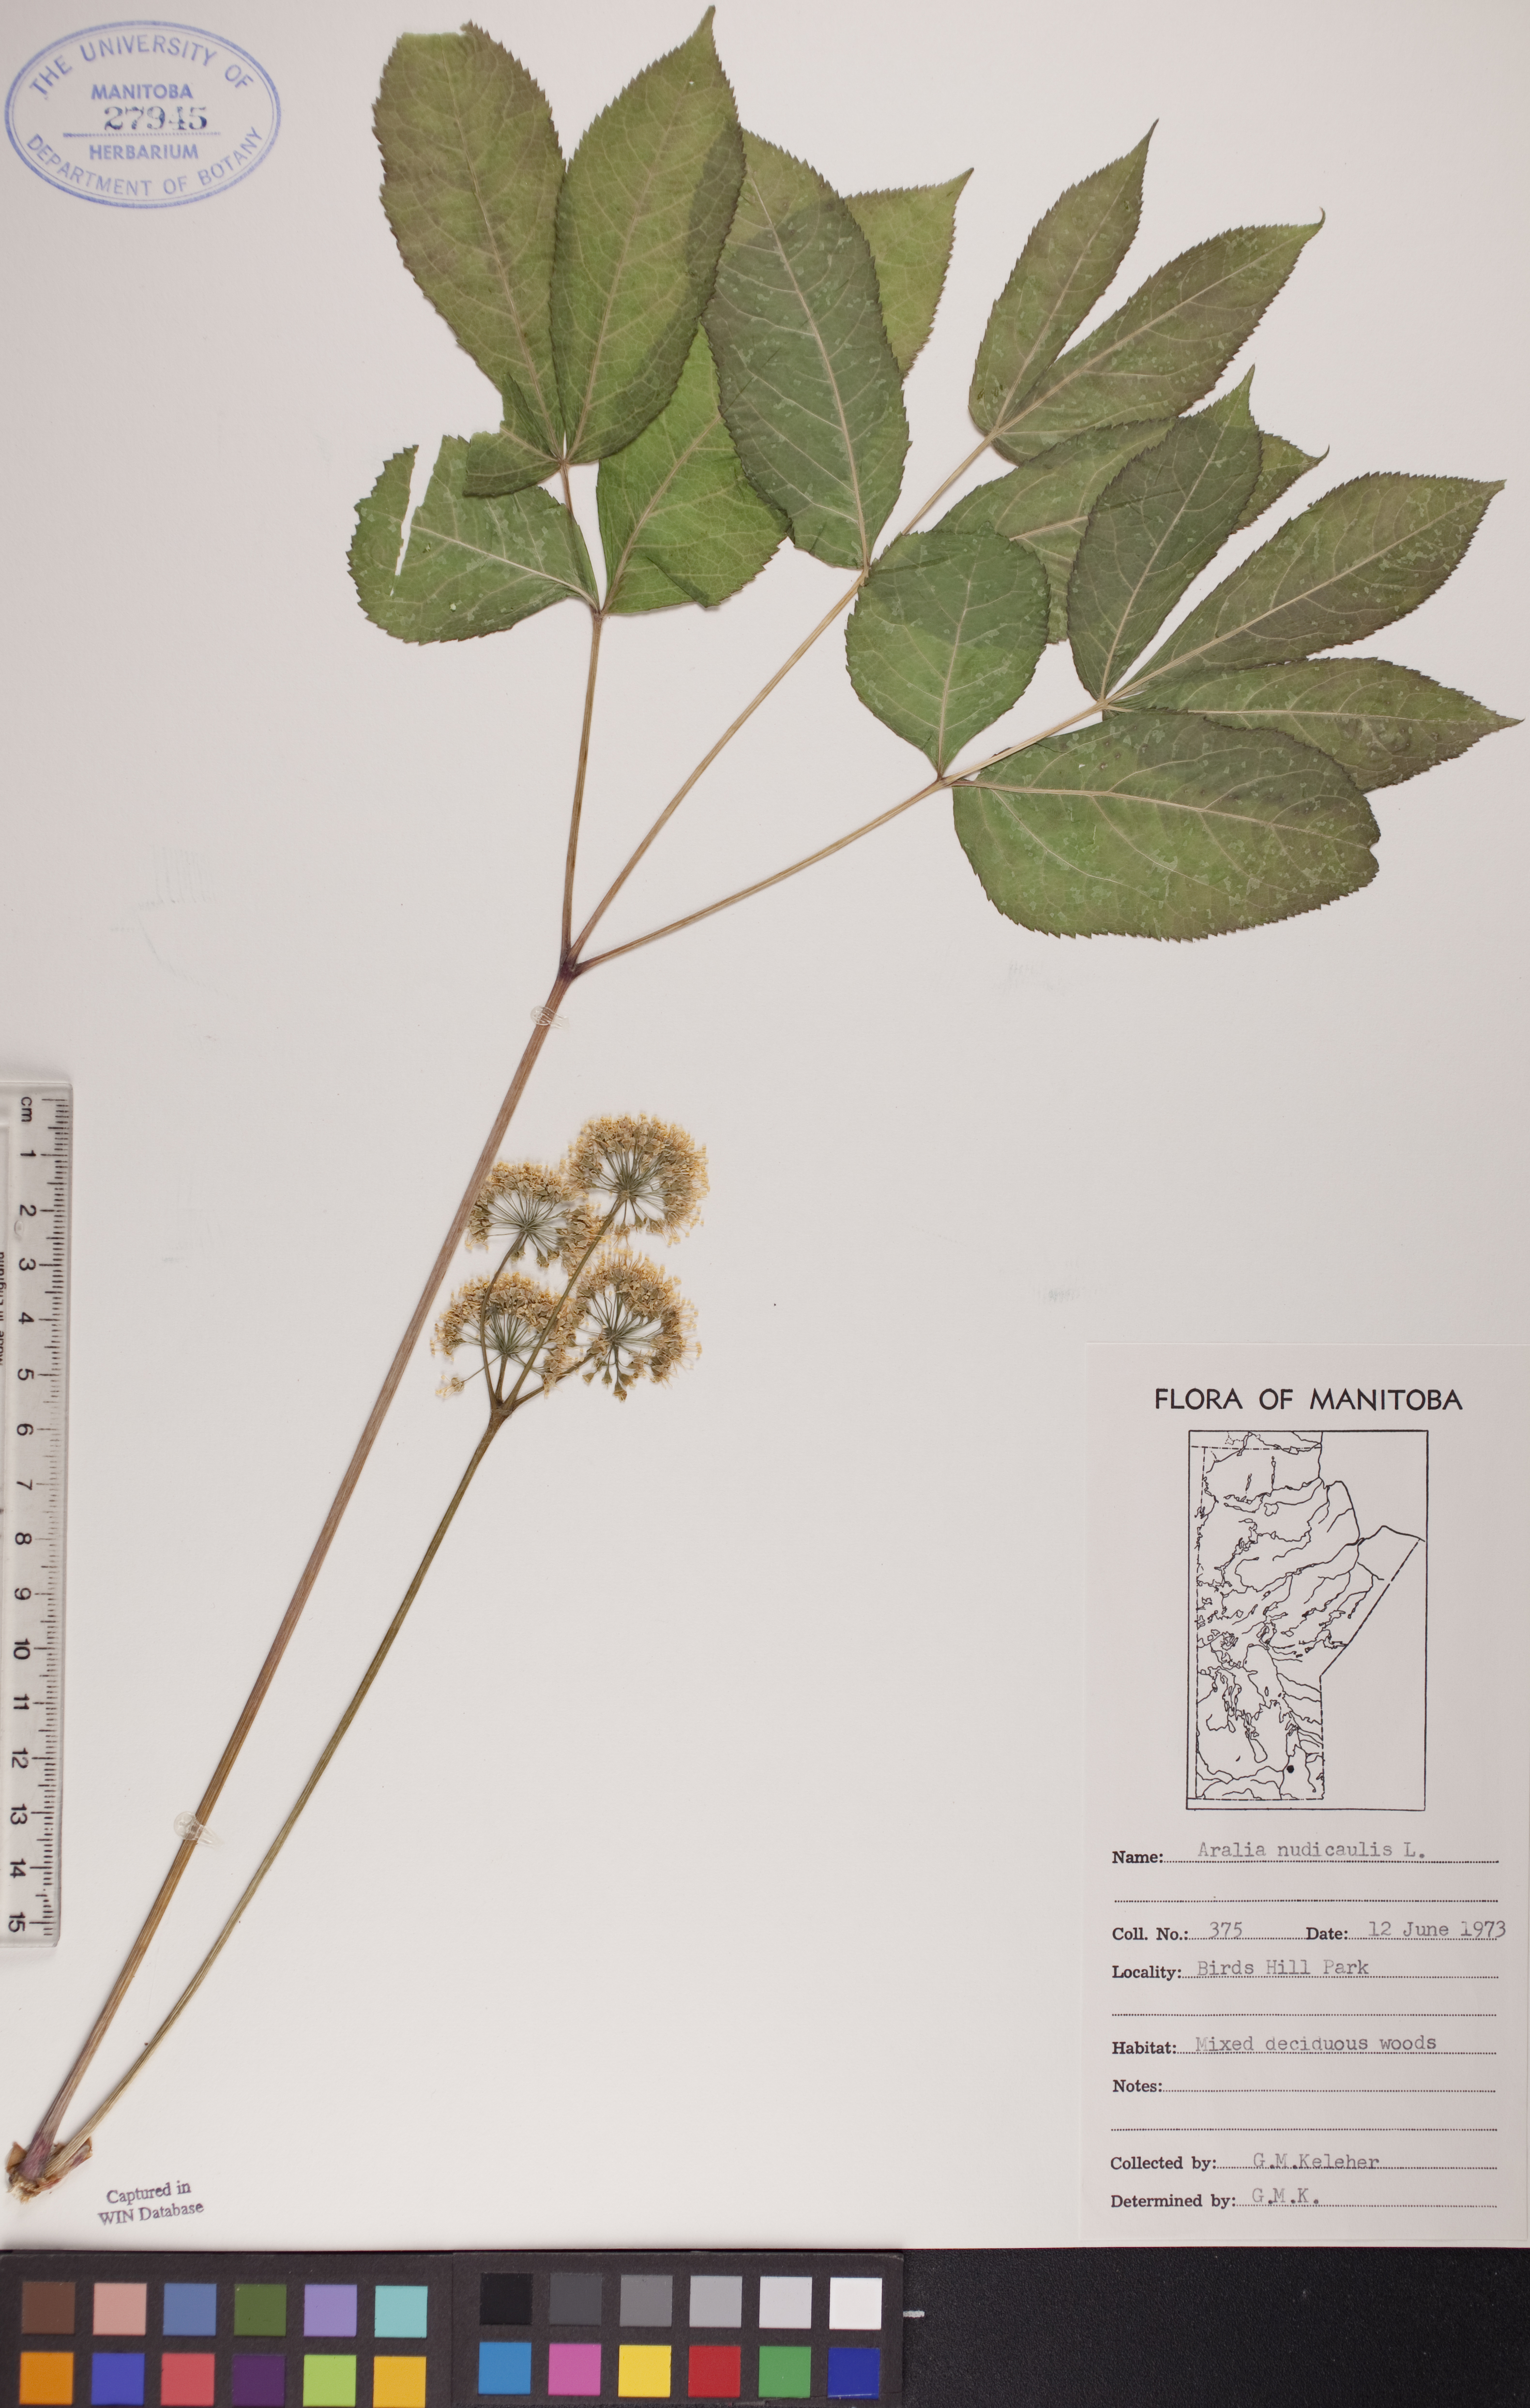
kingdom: Plantae
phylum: Tracheophyta
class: Magnoliopsida
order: Apiales
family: Araliaceae
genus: Aralia
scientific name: Aralia nudicaulis
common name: Wild sarsaparilla
